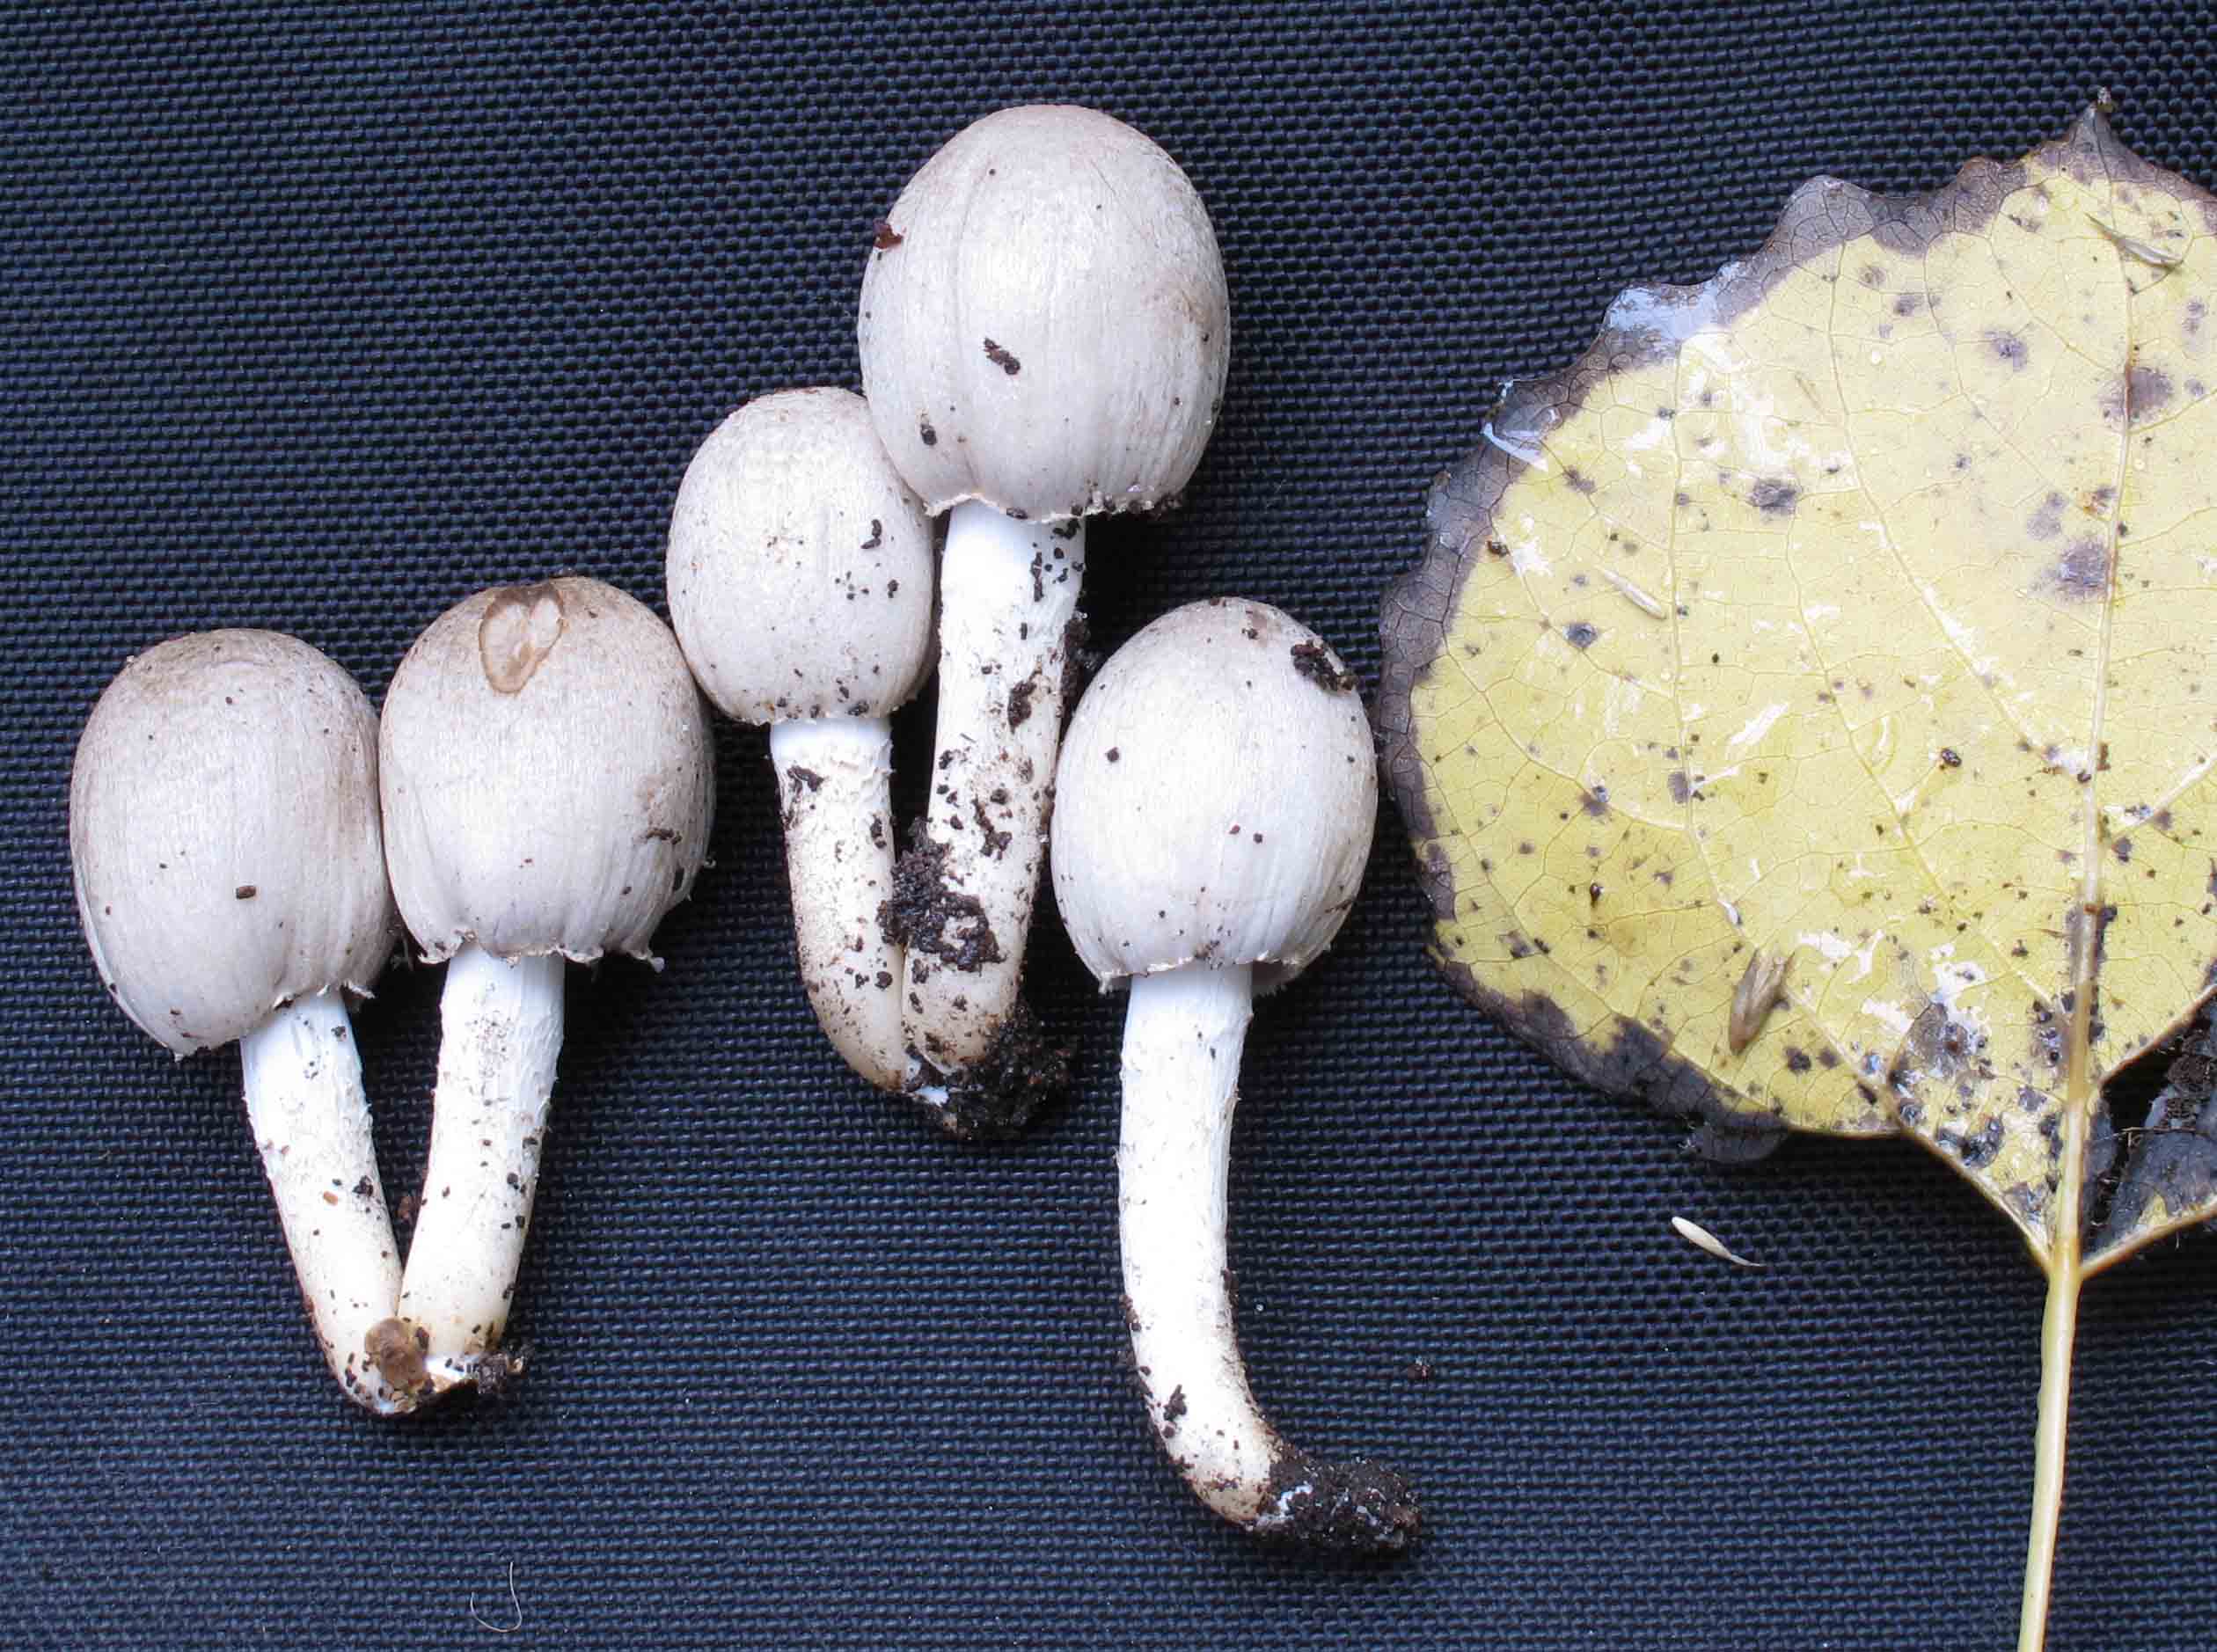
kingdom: Fungi
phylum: Basidiomycota
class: Agaricomycetes
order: Agaricales
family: Psathyrellaceae
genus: Coprinopsis
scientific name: Coprinopsis romagnesiana
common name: brunskællet blækhat
